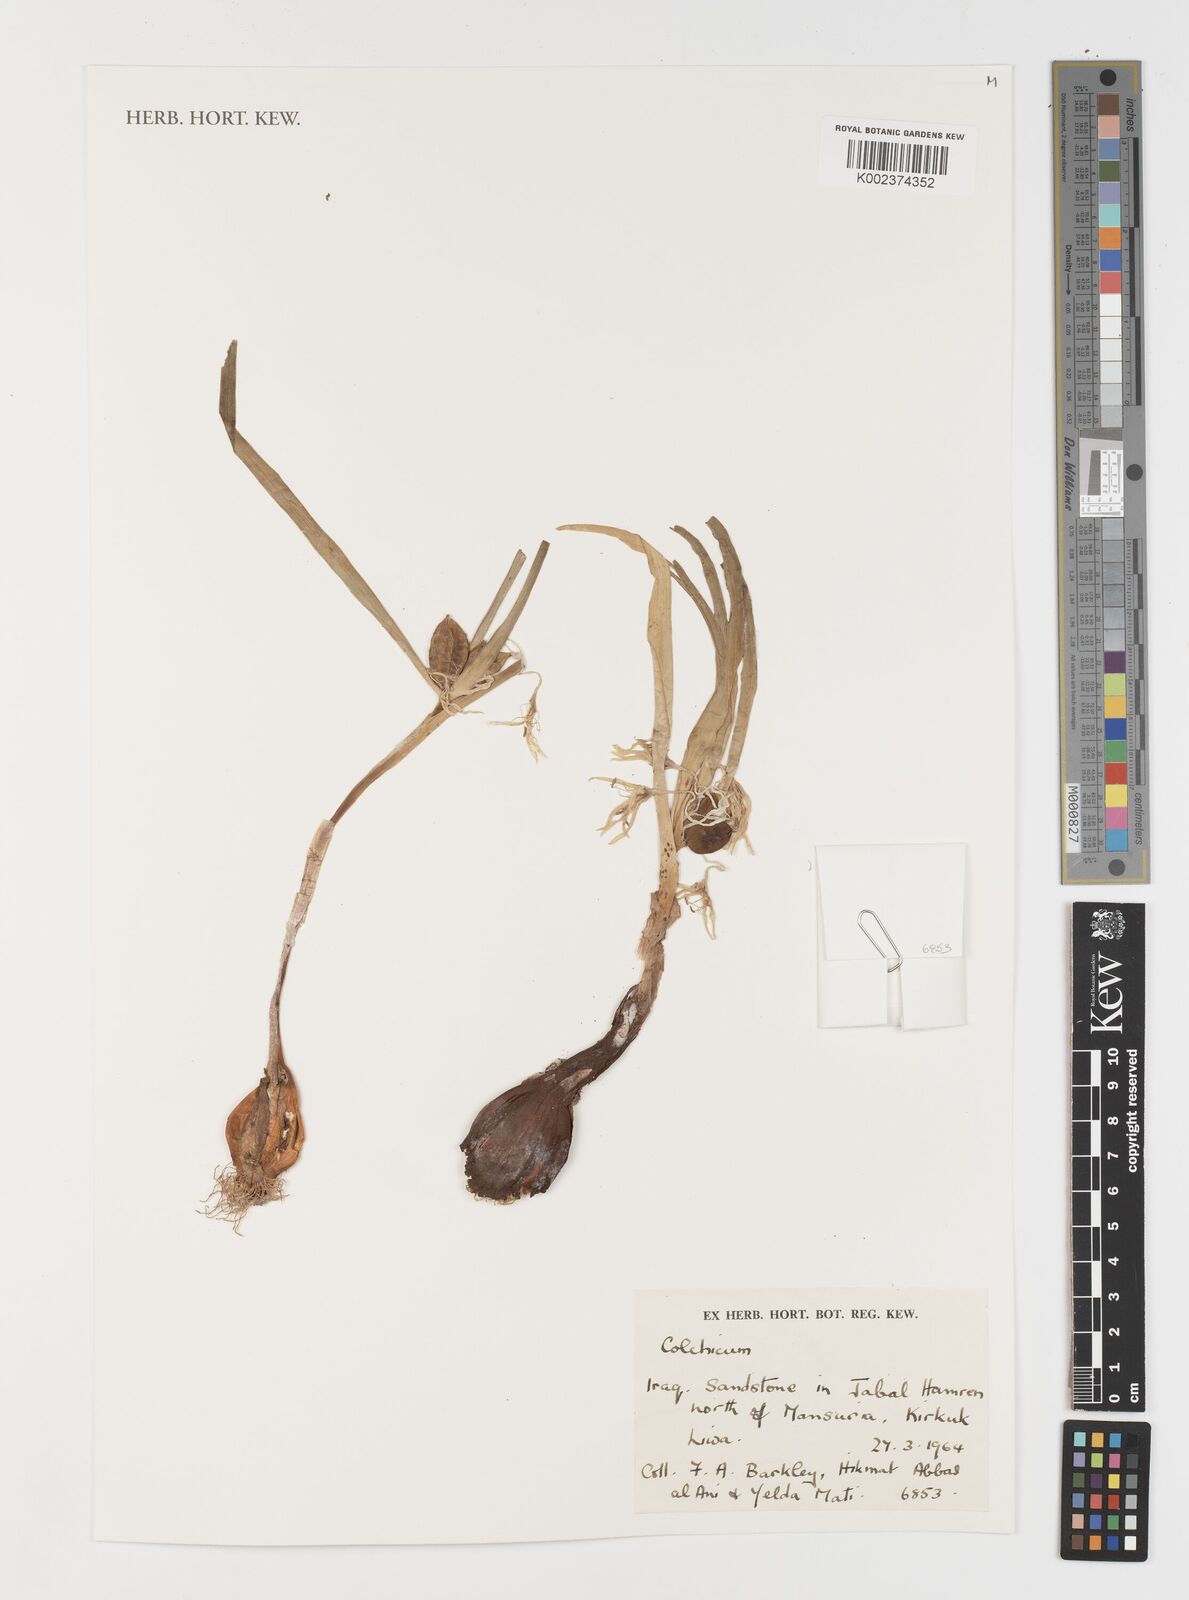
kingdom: Plantae
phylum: Tracheophyta
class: Liliopsida
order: Liliales
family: Colchicaceae
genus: Colchicum
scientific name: Colchicum
